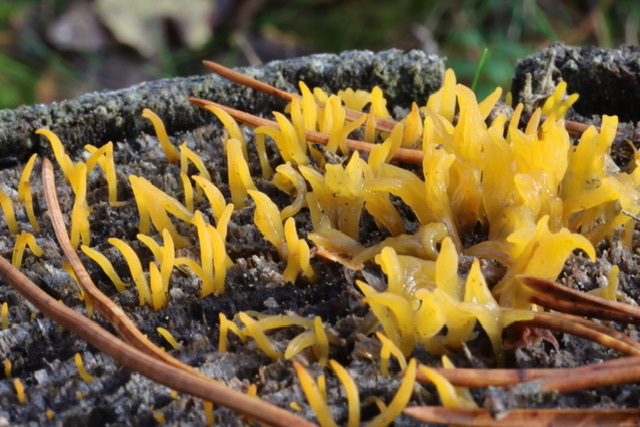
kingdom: Fungi
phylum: Basidiomycota
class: Dacrymycetes
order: Dacrymycetales
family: Dacrymycetaceae
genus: Calocera
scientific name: Calocera cornea
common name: Small stagshorn
